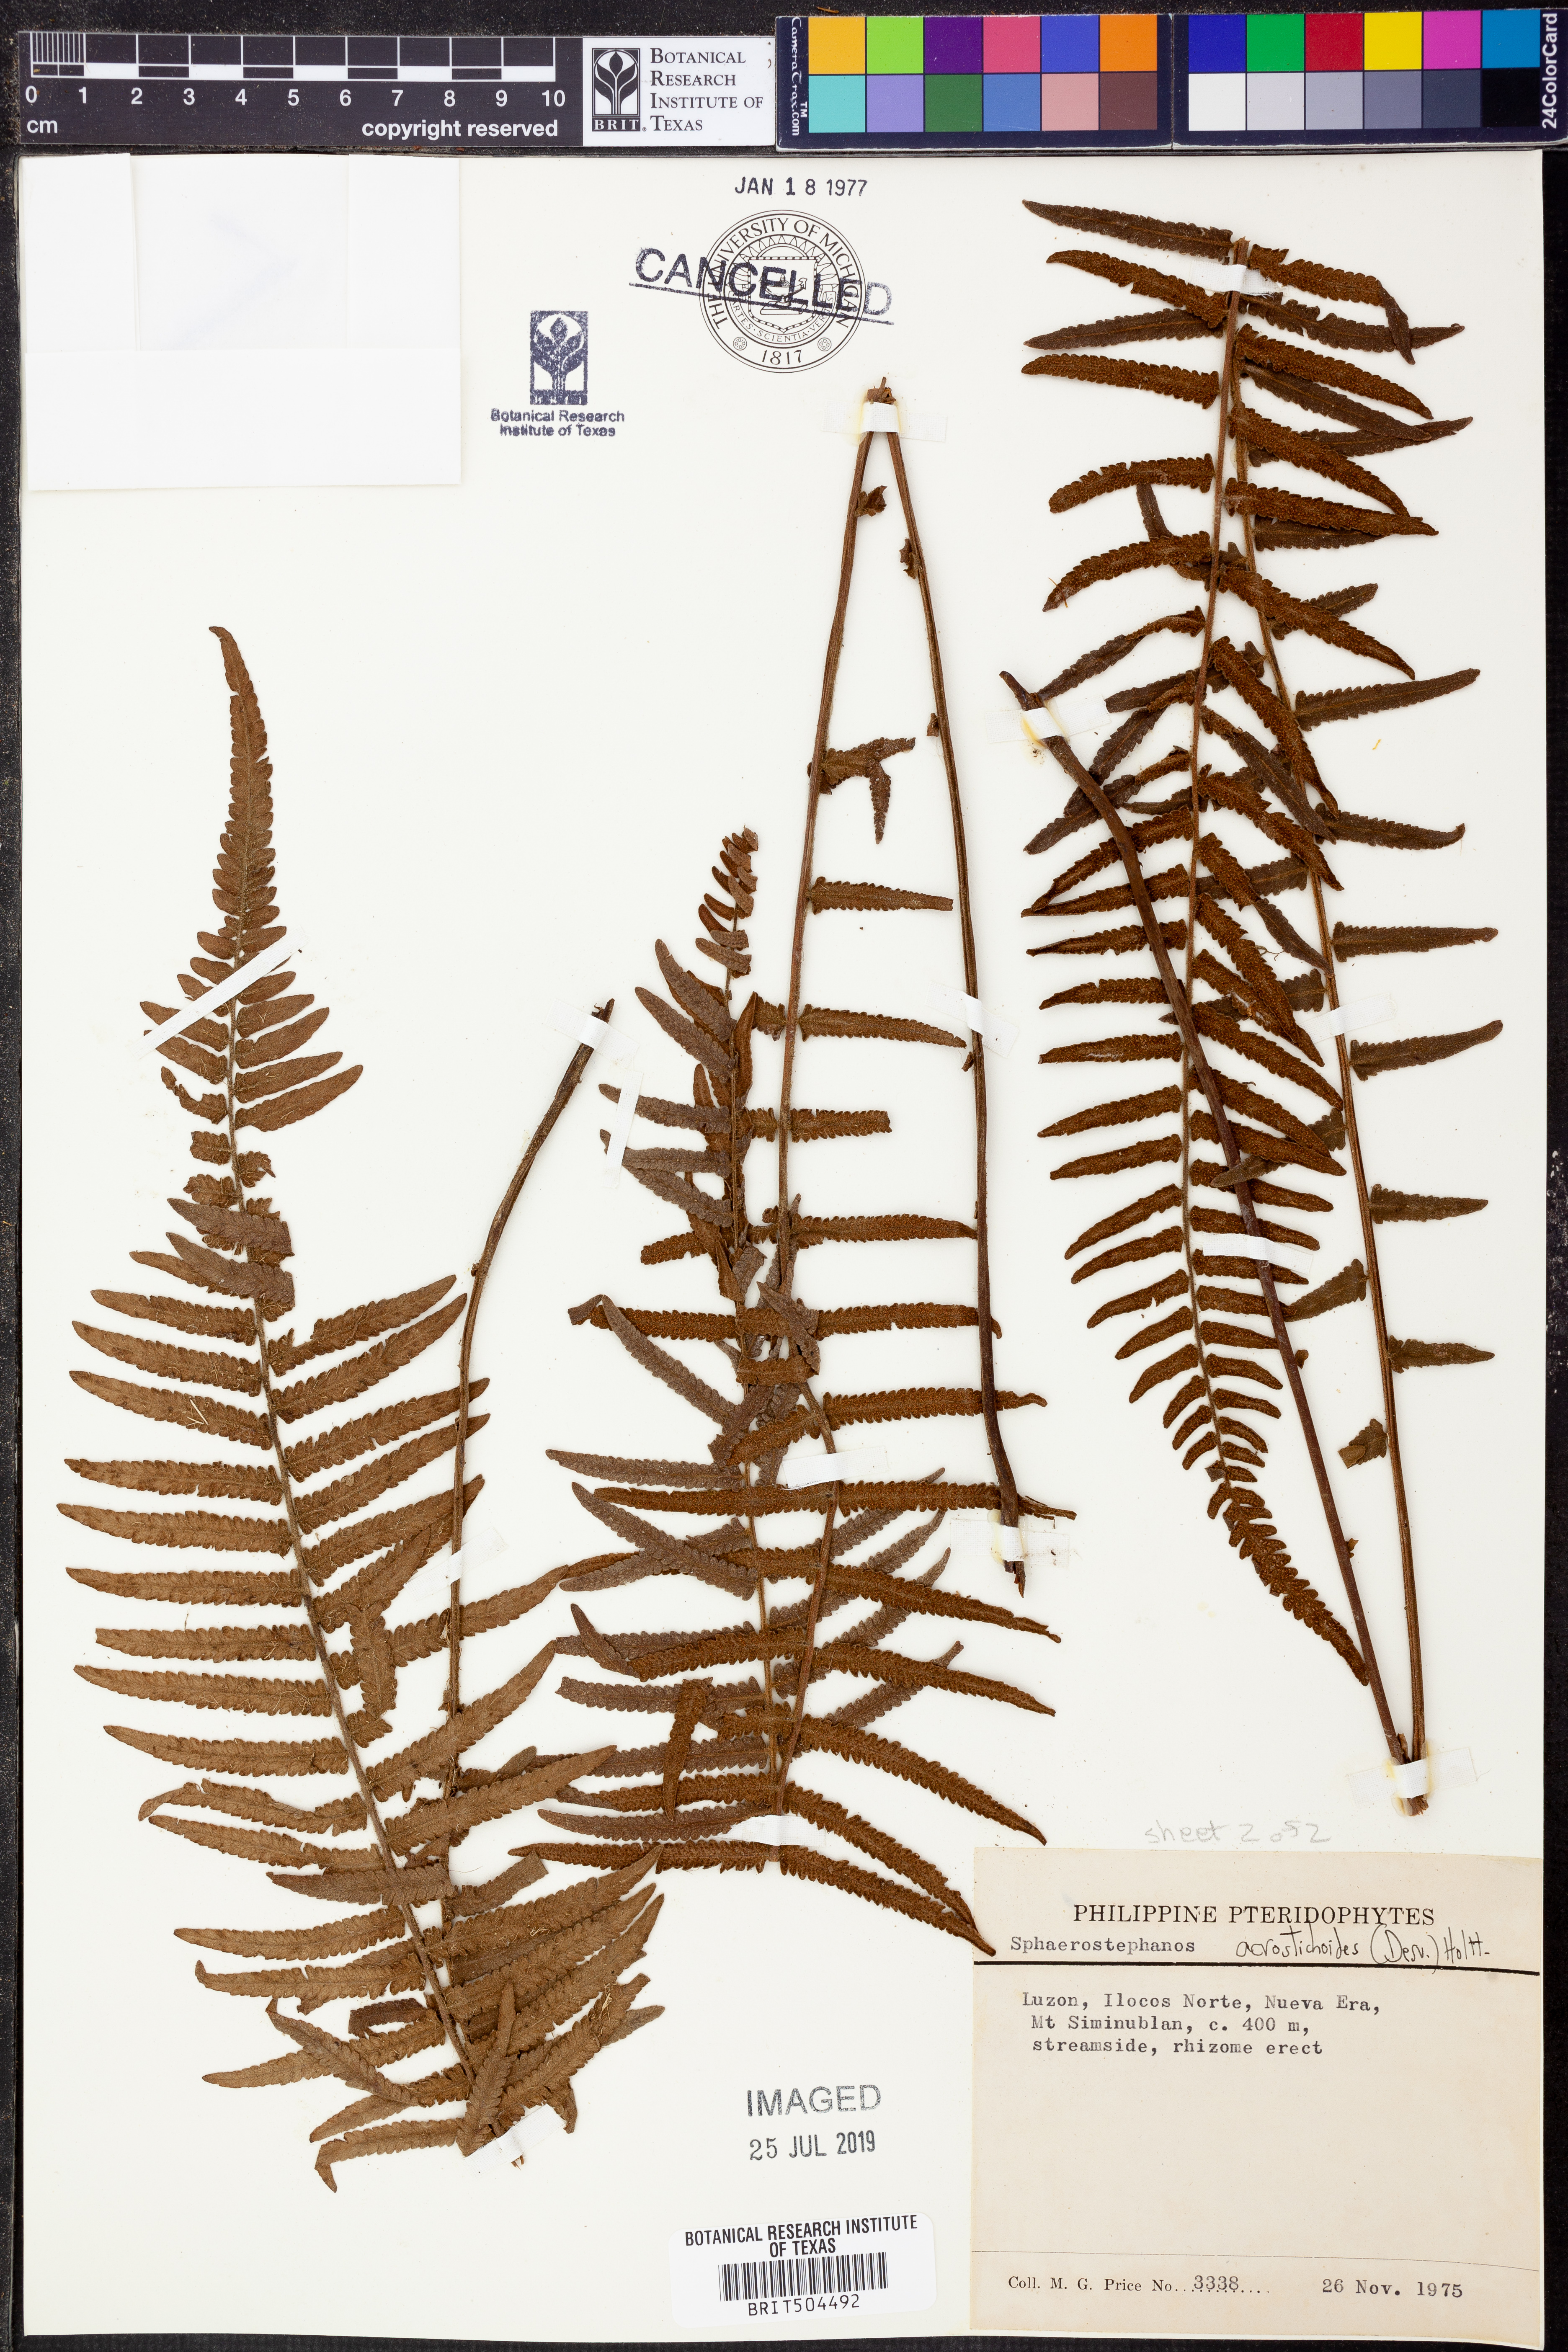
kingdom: Plantae
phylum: Tracheophyta
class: Polypodiopsida
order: Polypodiales
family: Thelypteridaceae
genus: Sphaerostephanos
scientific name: Sphaerostephanos acrostichoides
